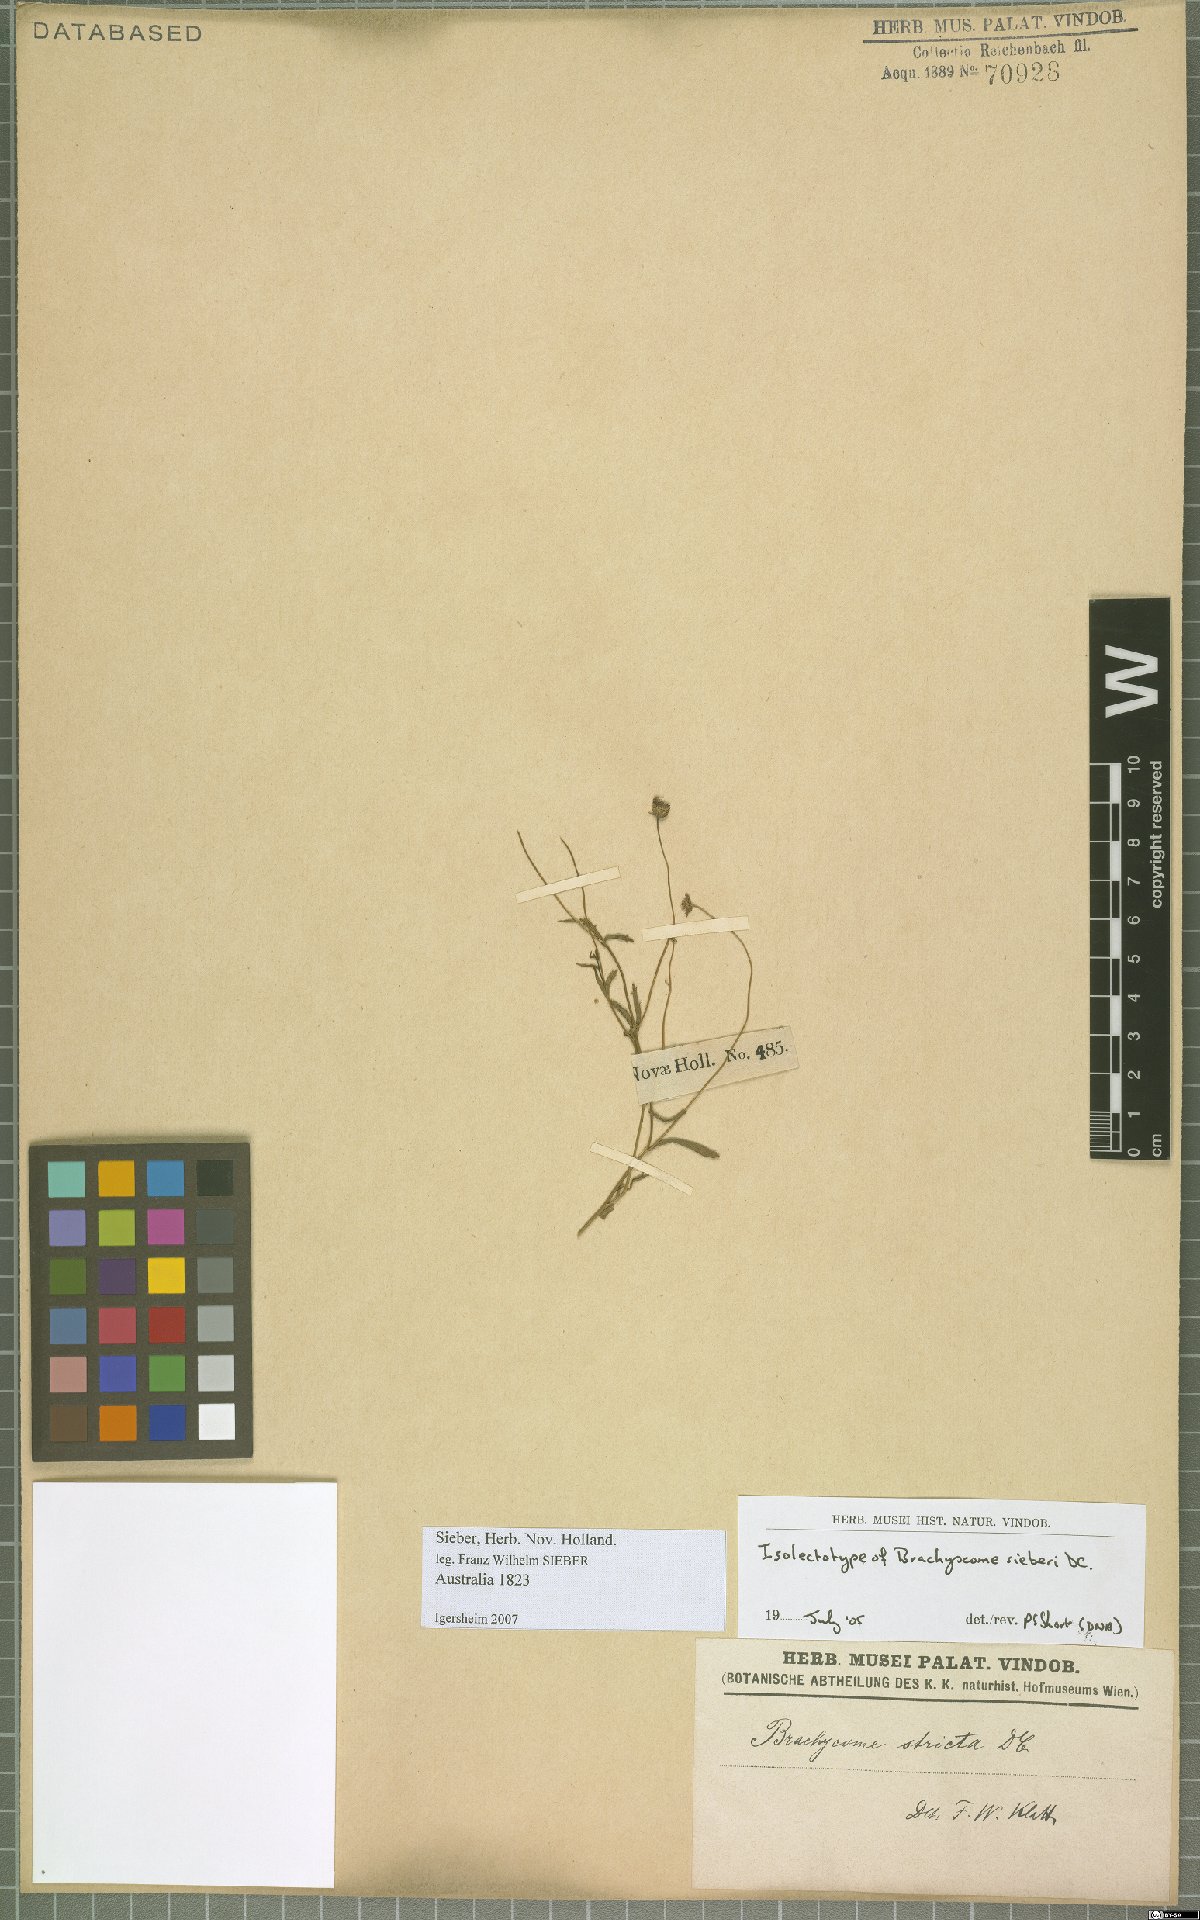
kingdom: Plantae
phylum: Tracheophyta
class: Magnoliopsida
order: Asterales
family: Asteraceae
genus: Brachyscome
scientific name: Brachyscome sieberi
